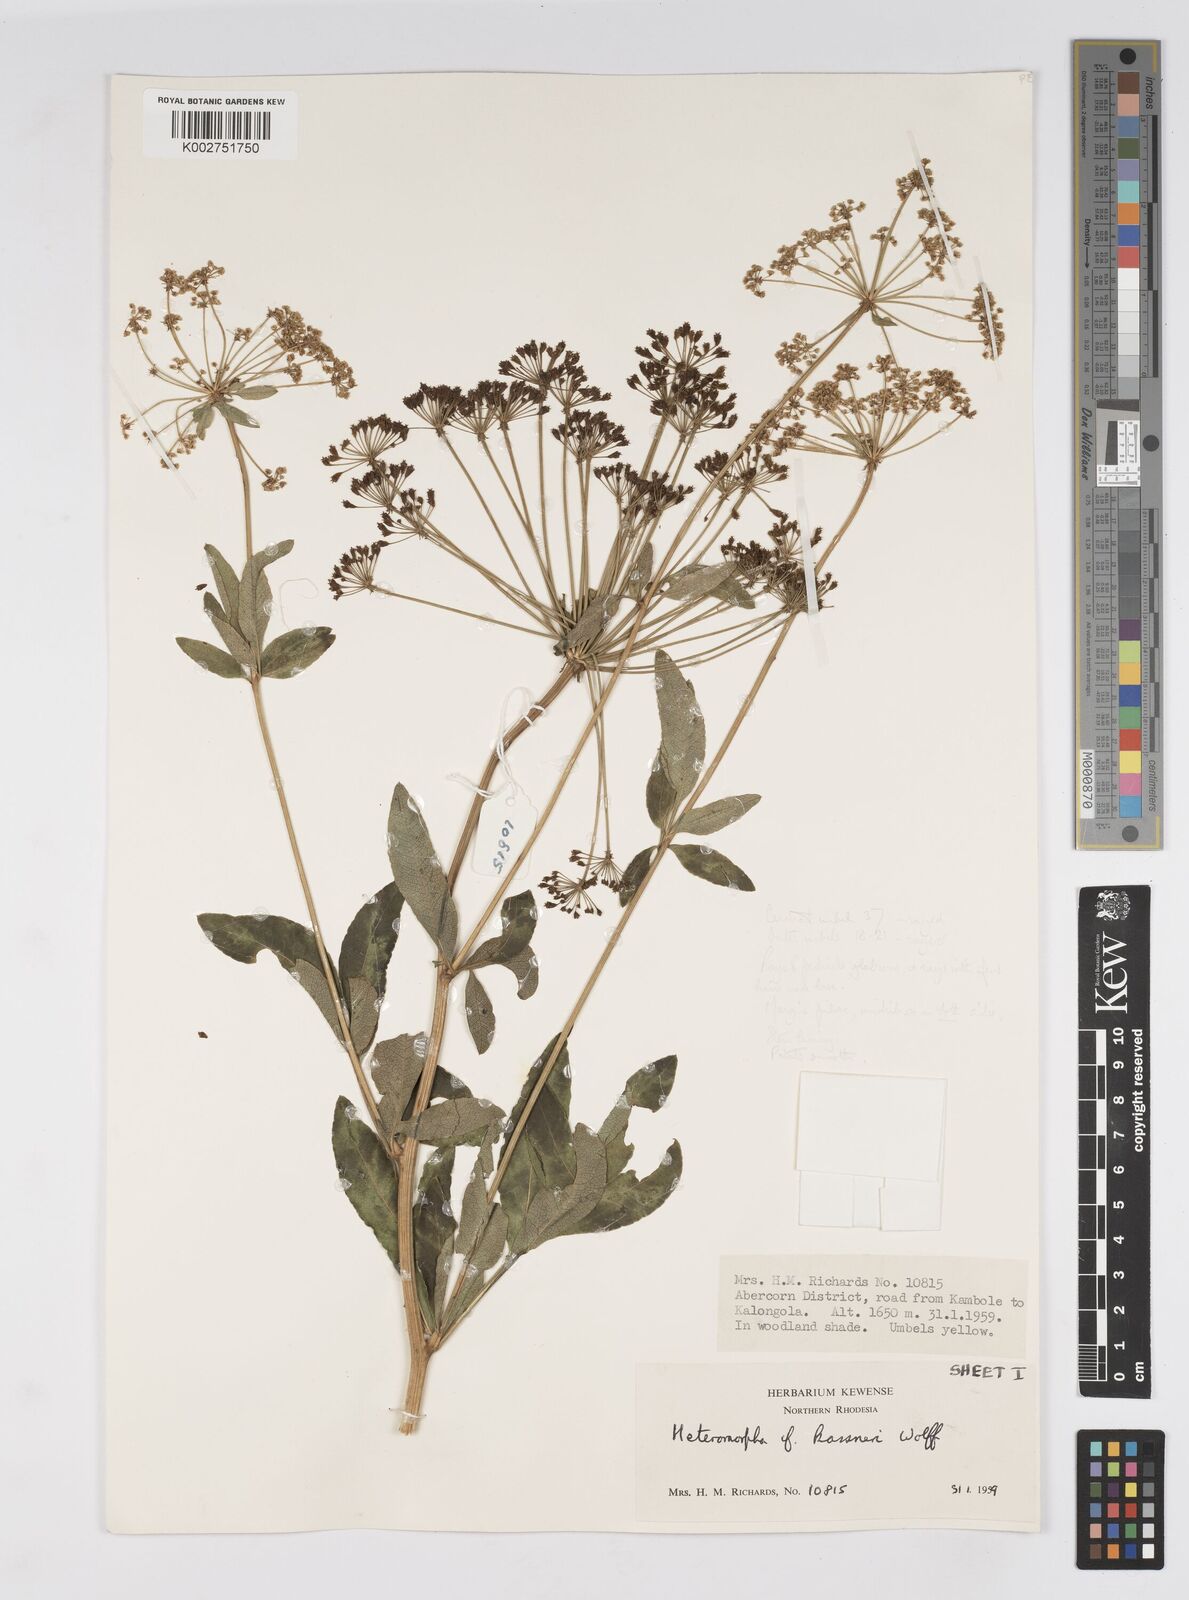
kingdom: Plantae
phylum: Tracheophyta
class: Magnoliopsida
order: Apiales
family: Apiaceae
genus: Heteromorpha
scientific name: Heteromorpha involucrata
